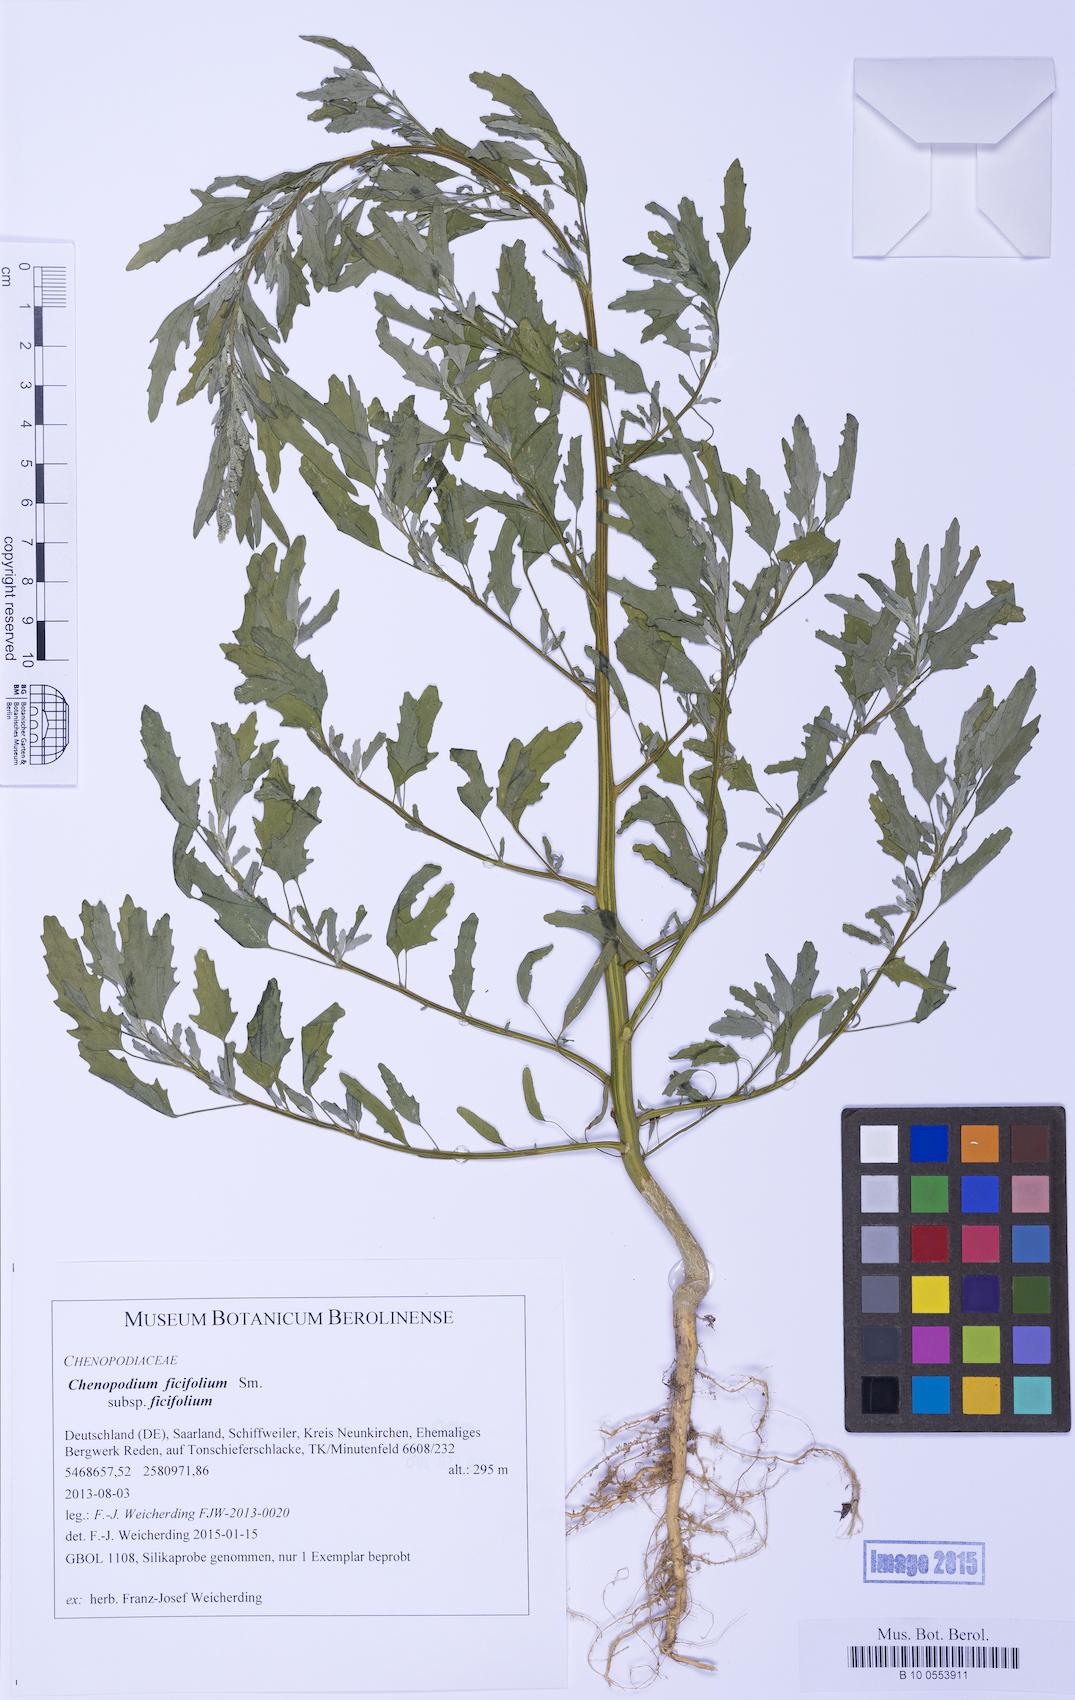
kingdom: Plantae
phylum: Tracheophyta
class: Magnoliopsida
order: Caryophyllales
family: Amaranthaceae
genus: Chenopodium
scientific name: Chenopodium ficifolium
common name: Fig-leaved goosefoot
